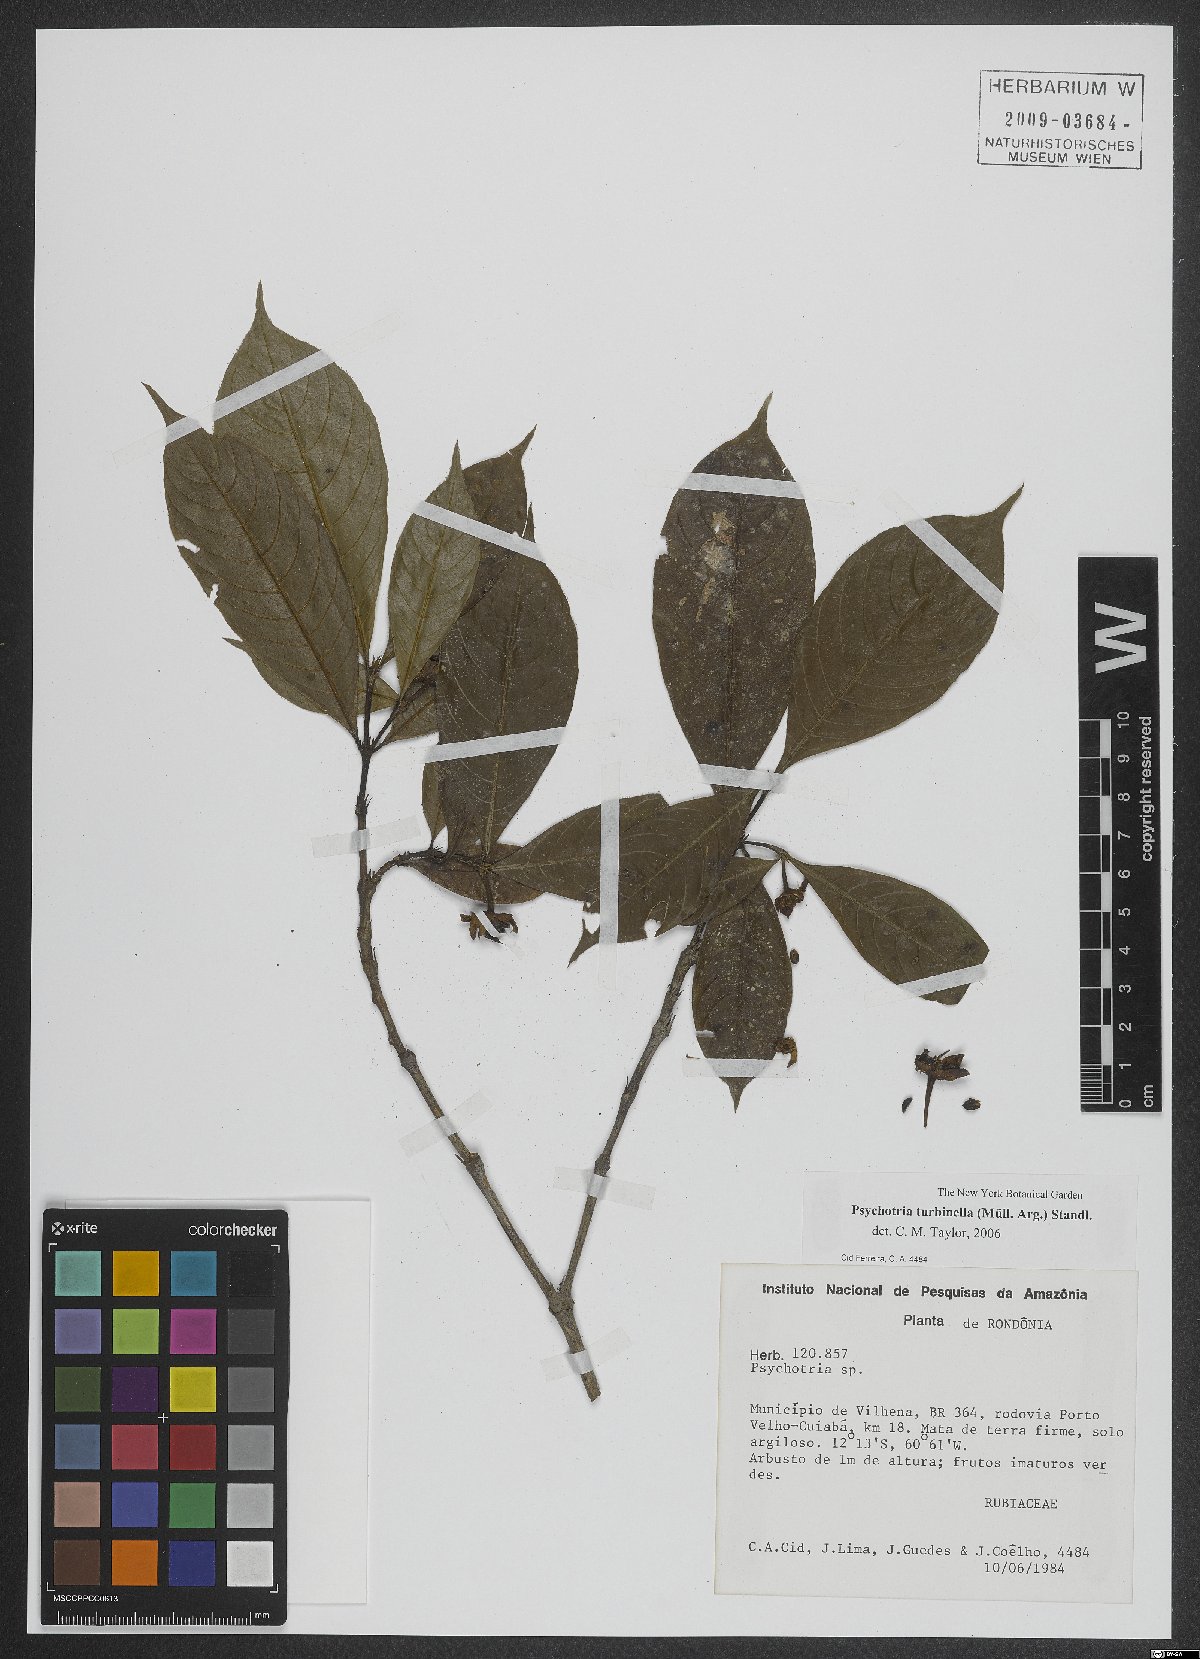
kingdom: Plantae
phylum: Tracheophyta
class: Magnoliopsida
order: Gentianales
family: Rubiaceae
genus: Palicourea
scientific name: Palicourea turbinella
